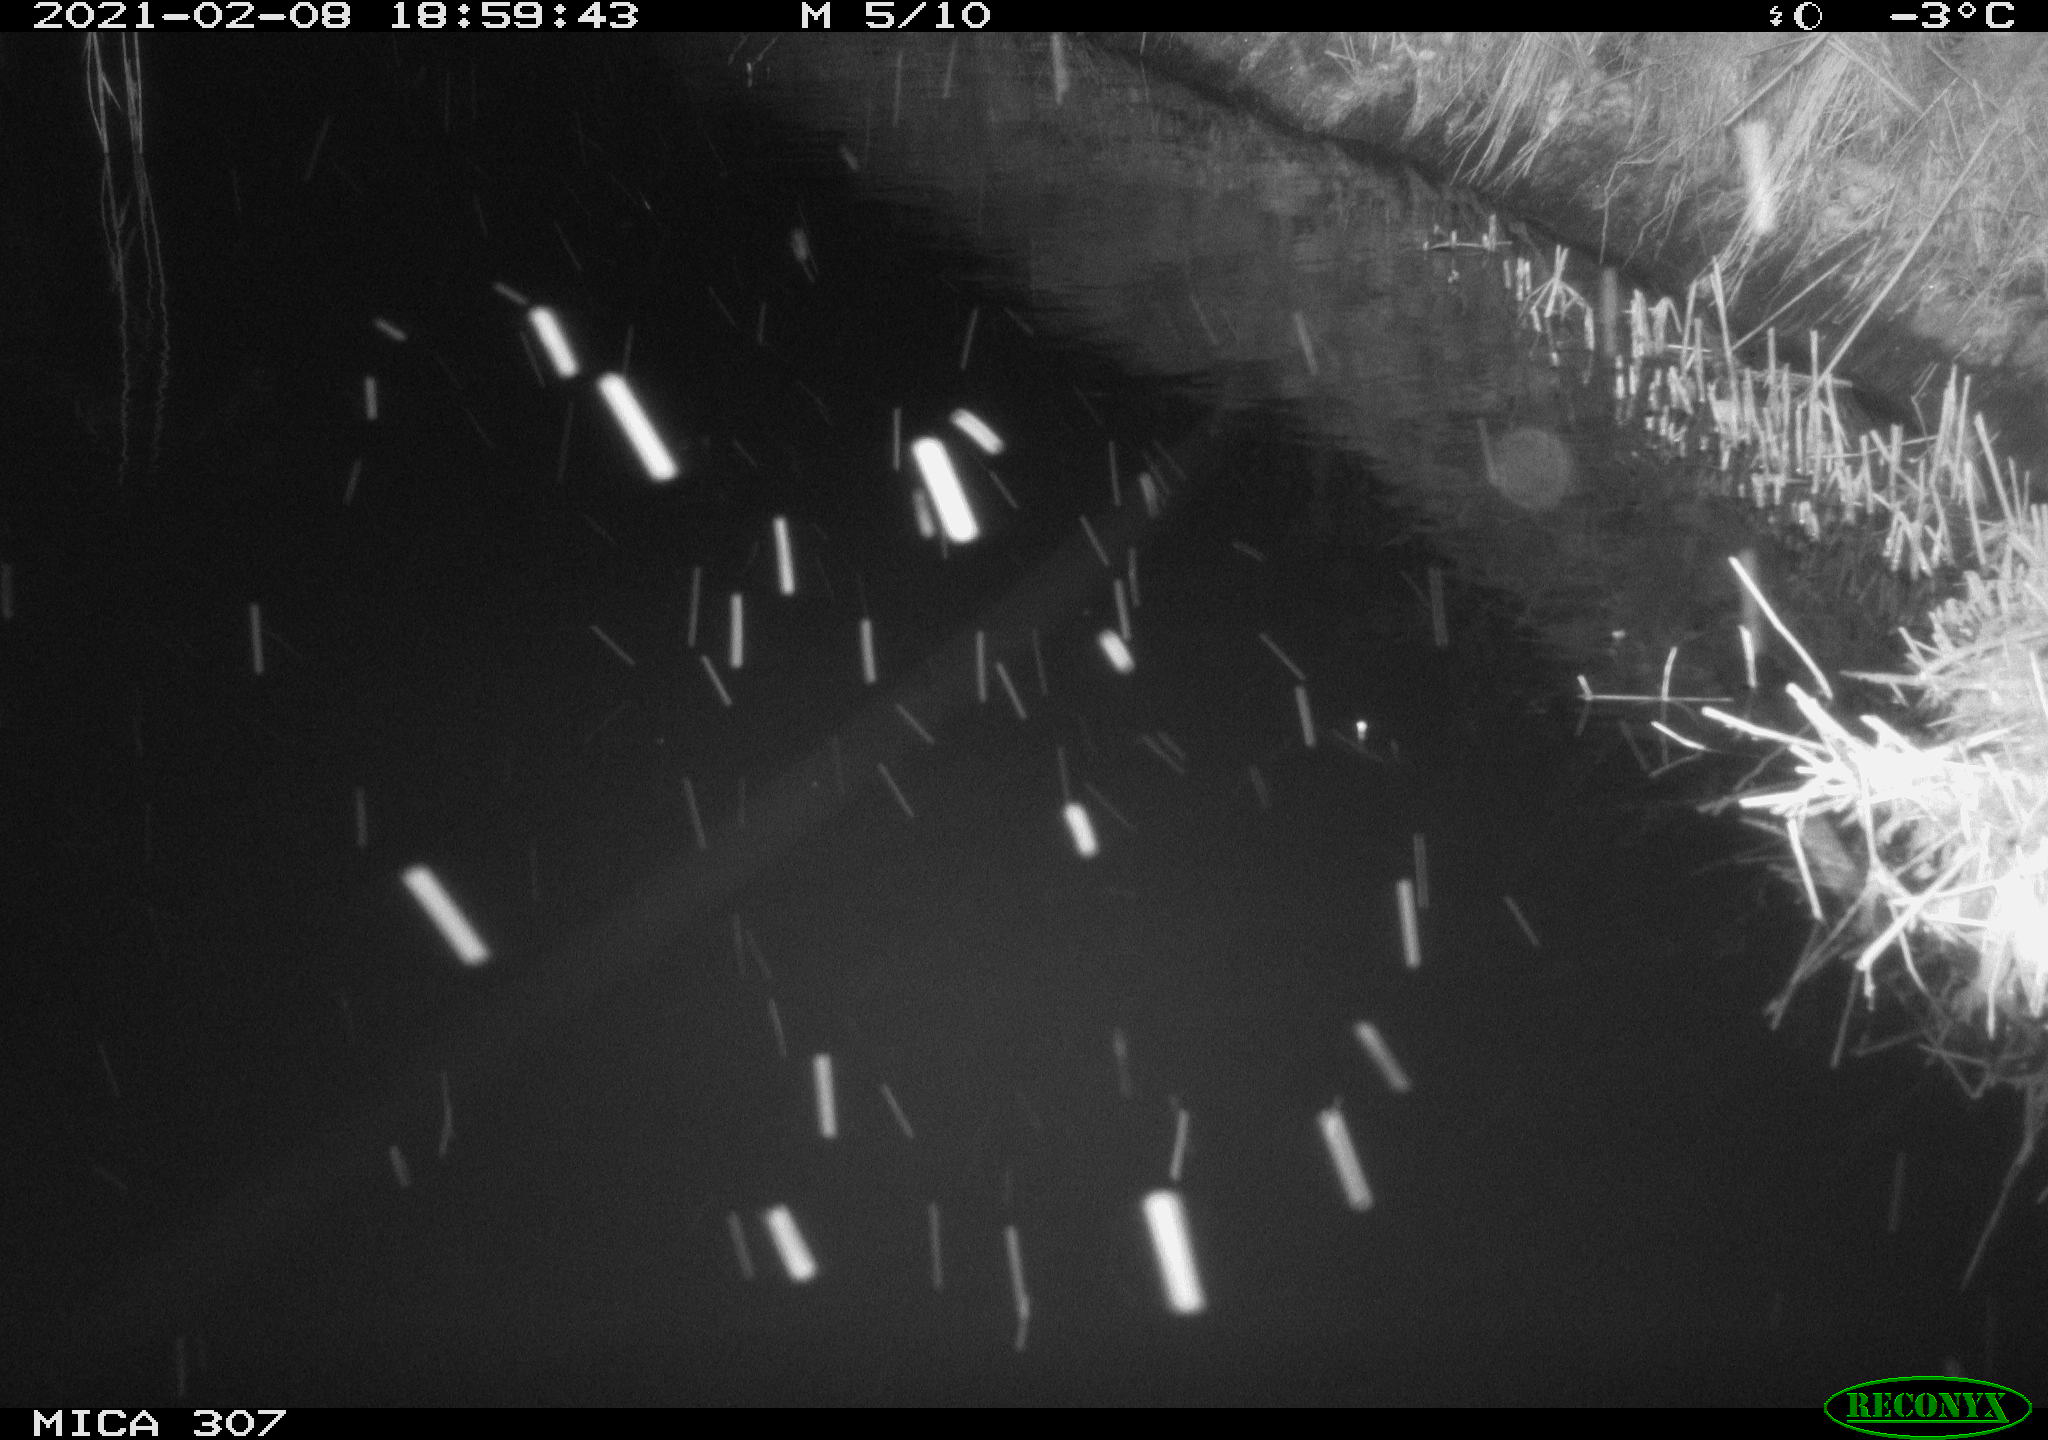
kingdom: Animalia
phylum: Chordata
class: Mammalia
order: Rodentia
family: Muridae
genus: Rattus
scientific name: Rattus norvegicus
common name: Brown rat
